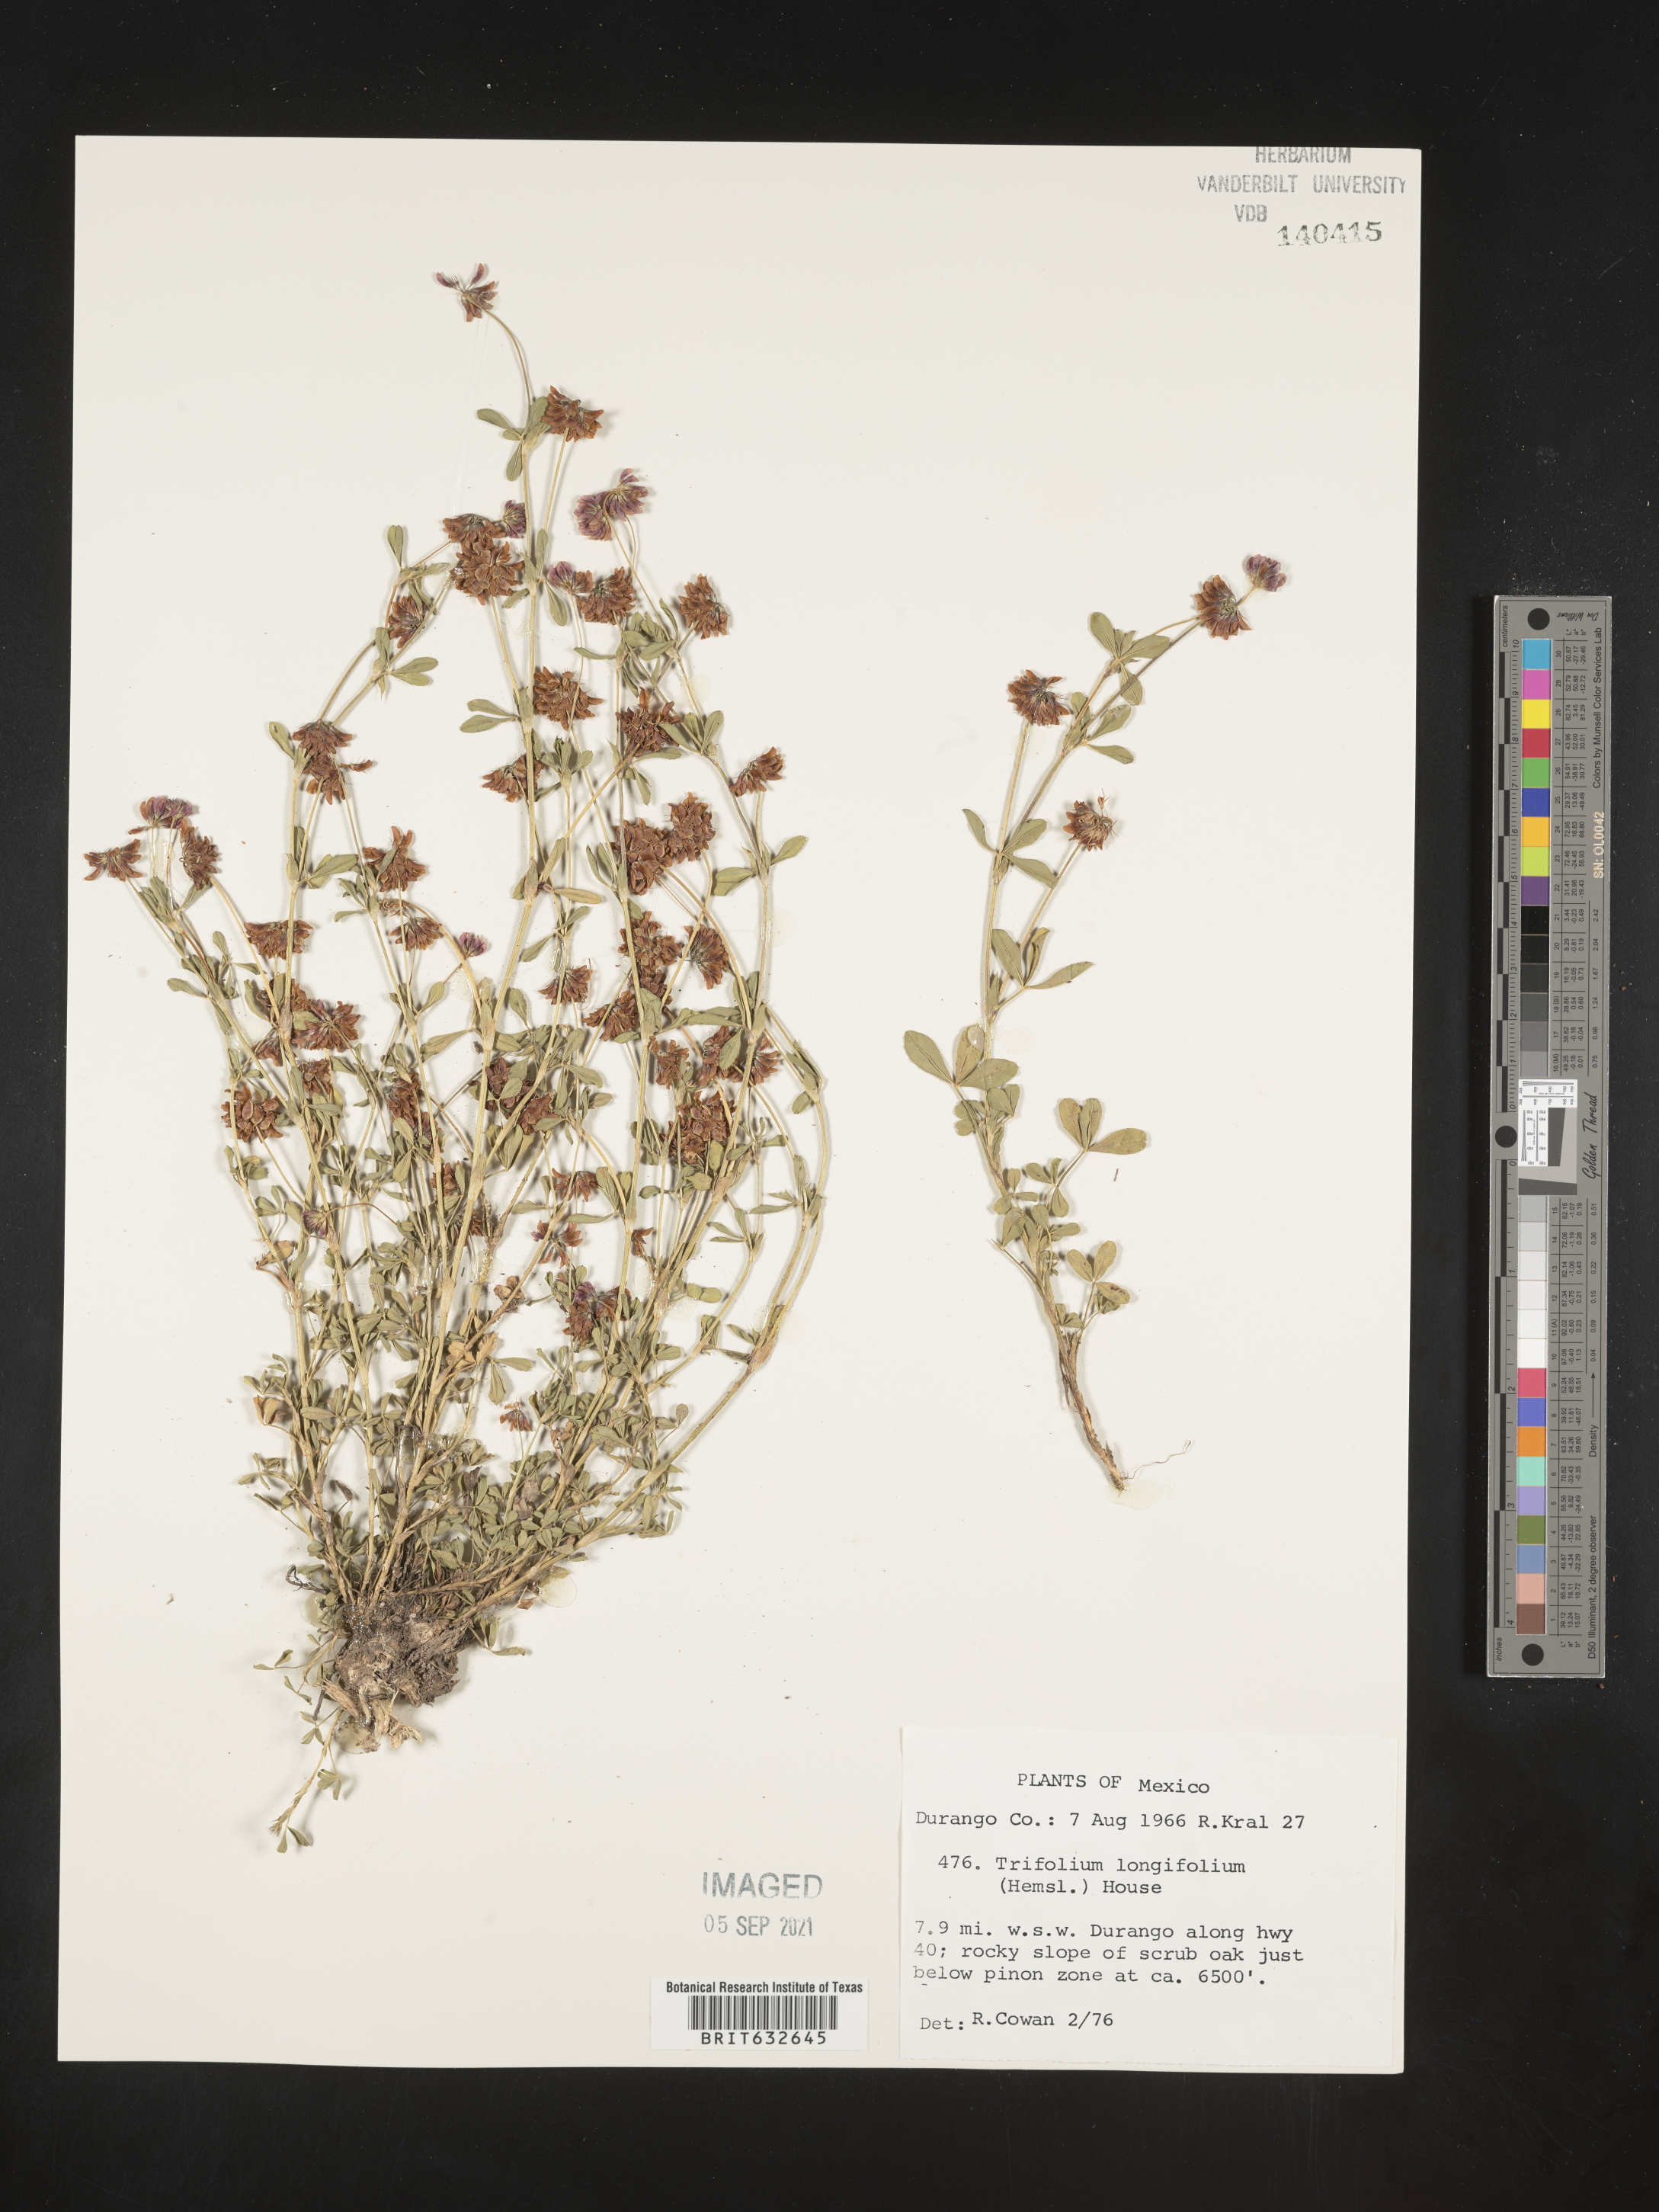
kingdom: Plantae
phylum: Tracheophyta
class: Magnoliopsida
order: Fabales
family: Fabaceae
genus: Trifolium
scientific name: Trifolium
